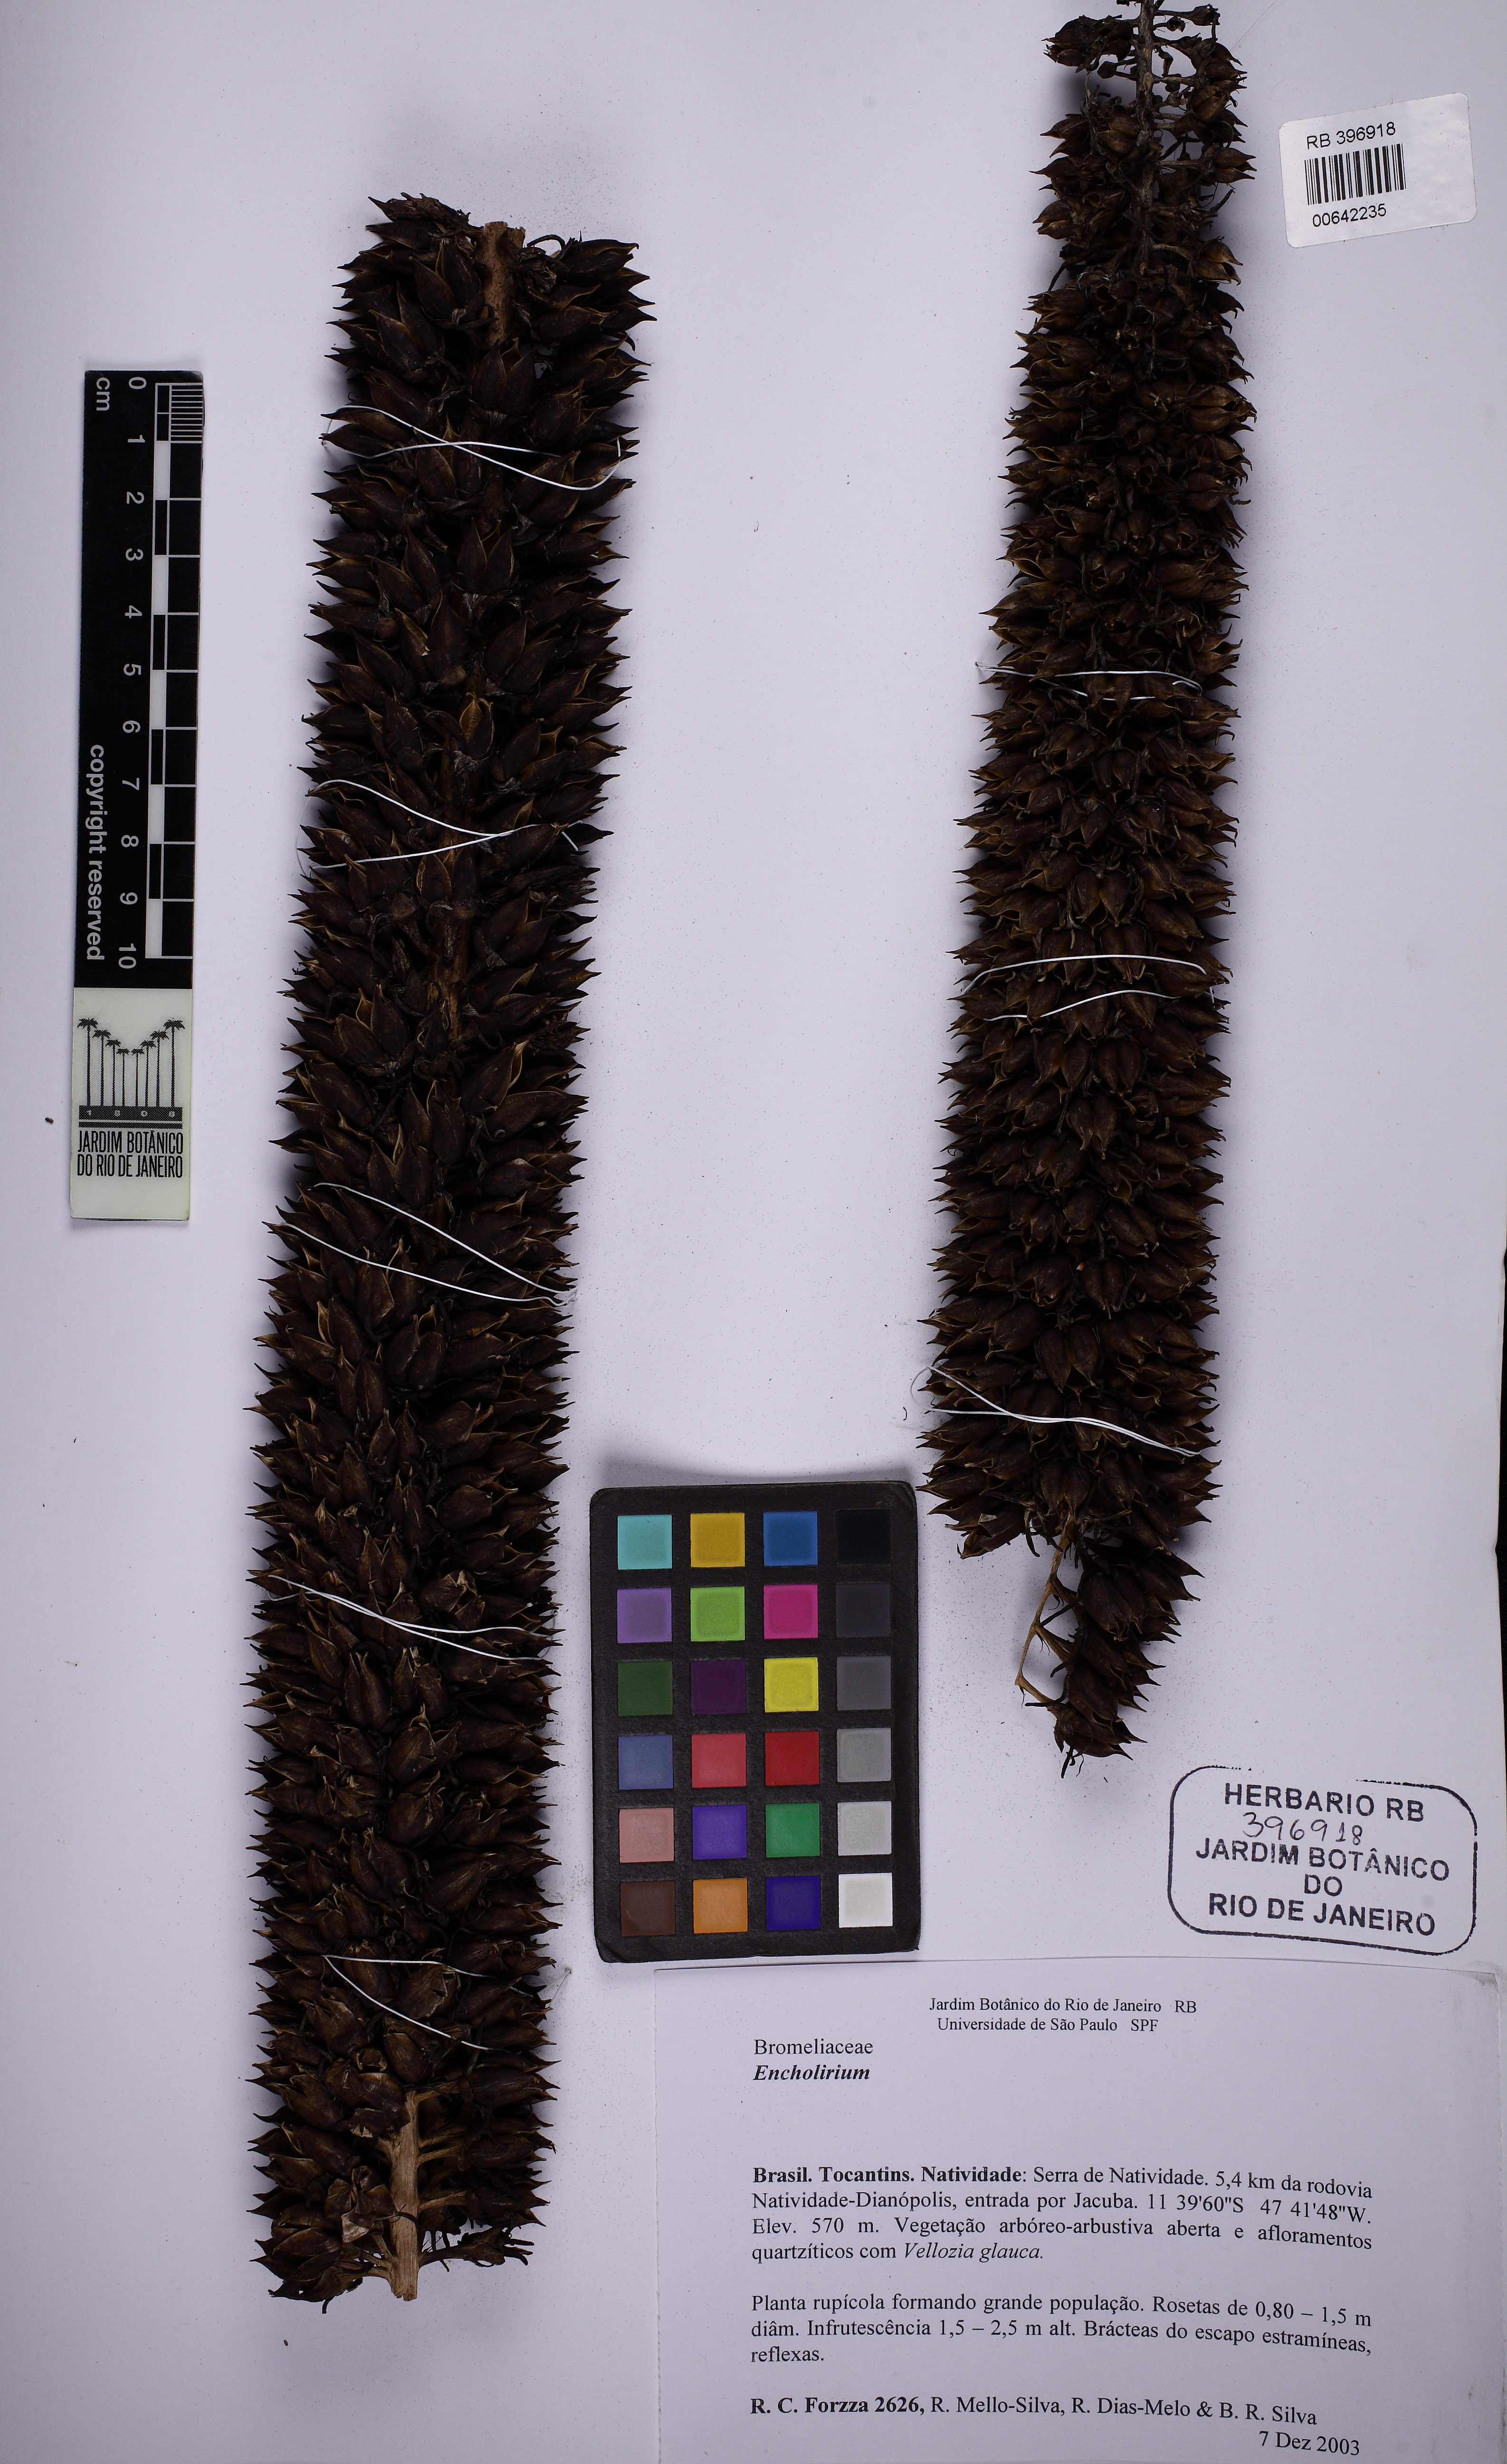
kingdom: Plantae
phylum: Tracheophyta
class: Liliopsida
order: Poales
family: Bromeliaceae
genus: Encholirium
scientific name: Encholirium
